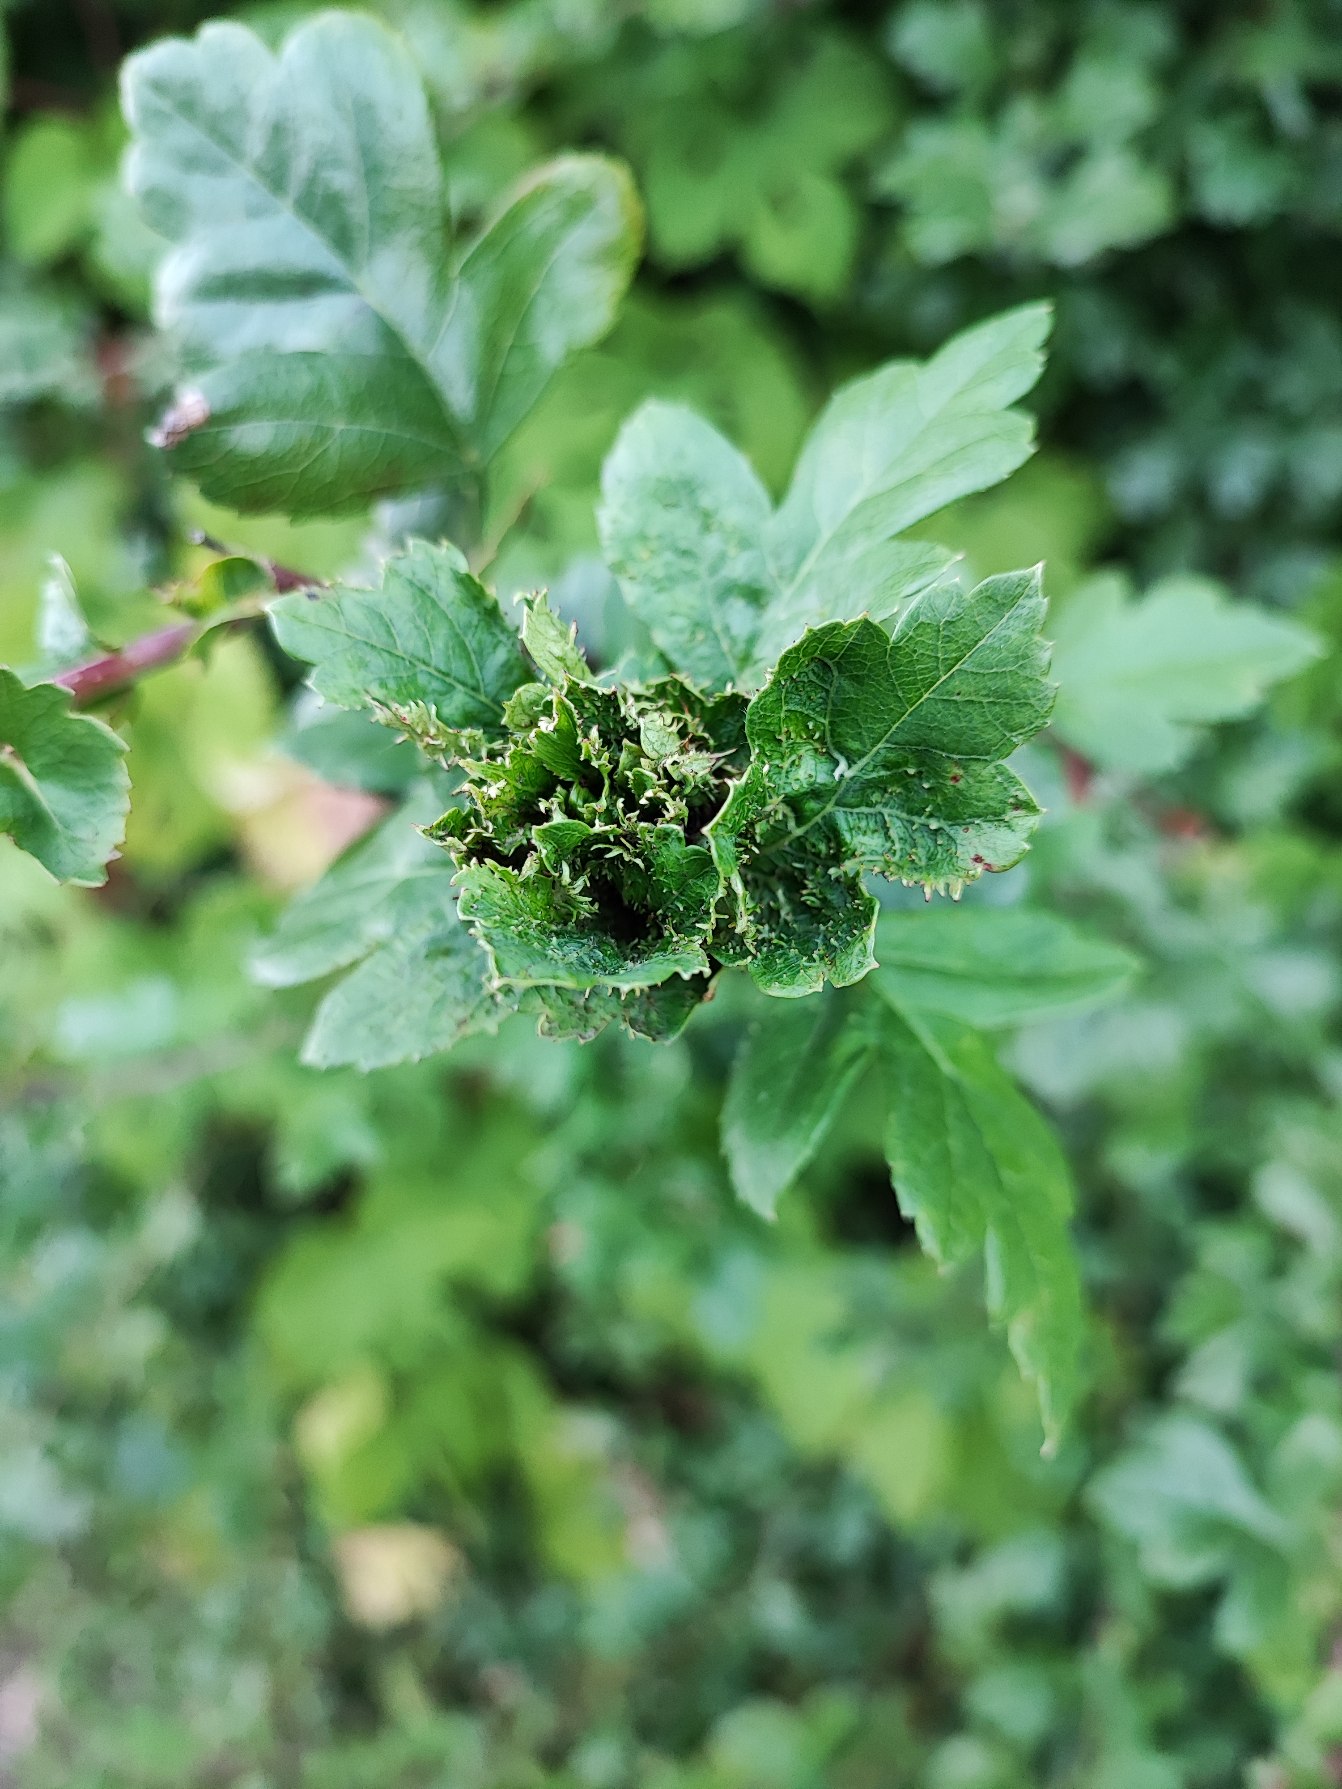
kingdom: Animalia
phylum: Arthropoda
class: Insecta
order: Diptera
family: Cecidomyiidae
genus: Dasineura
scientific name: Dasineura crataegi
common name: Tjørnerosetgalmyg
